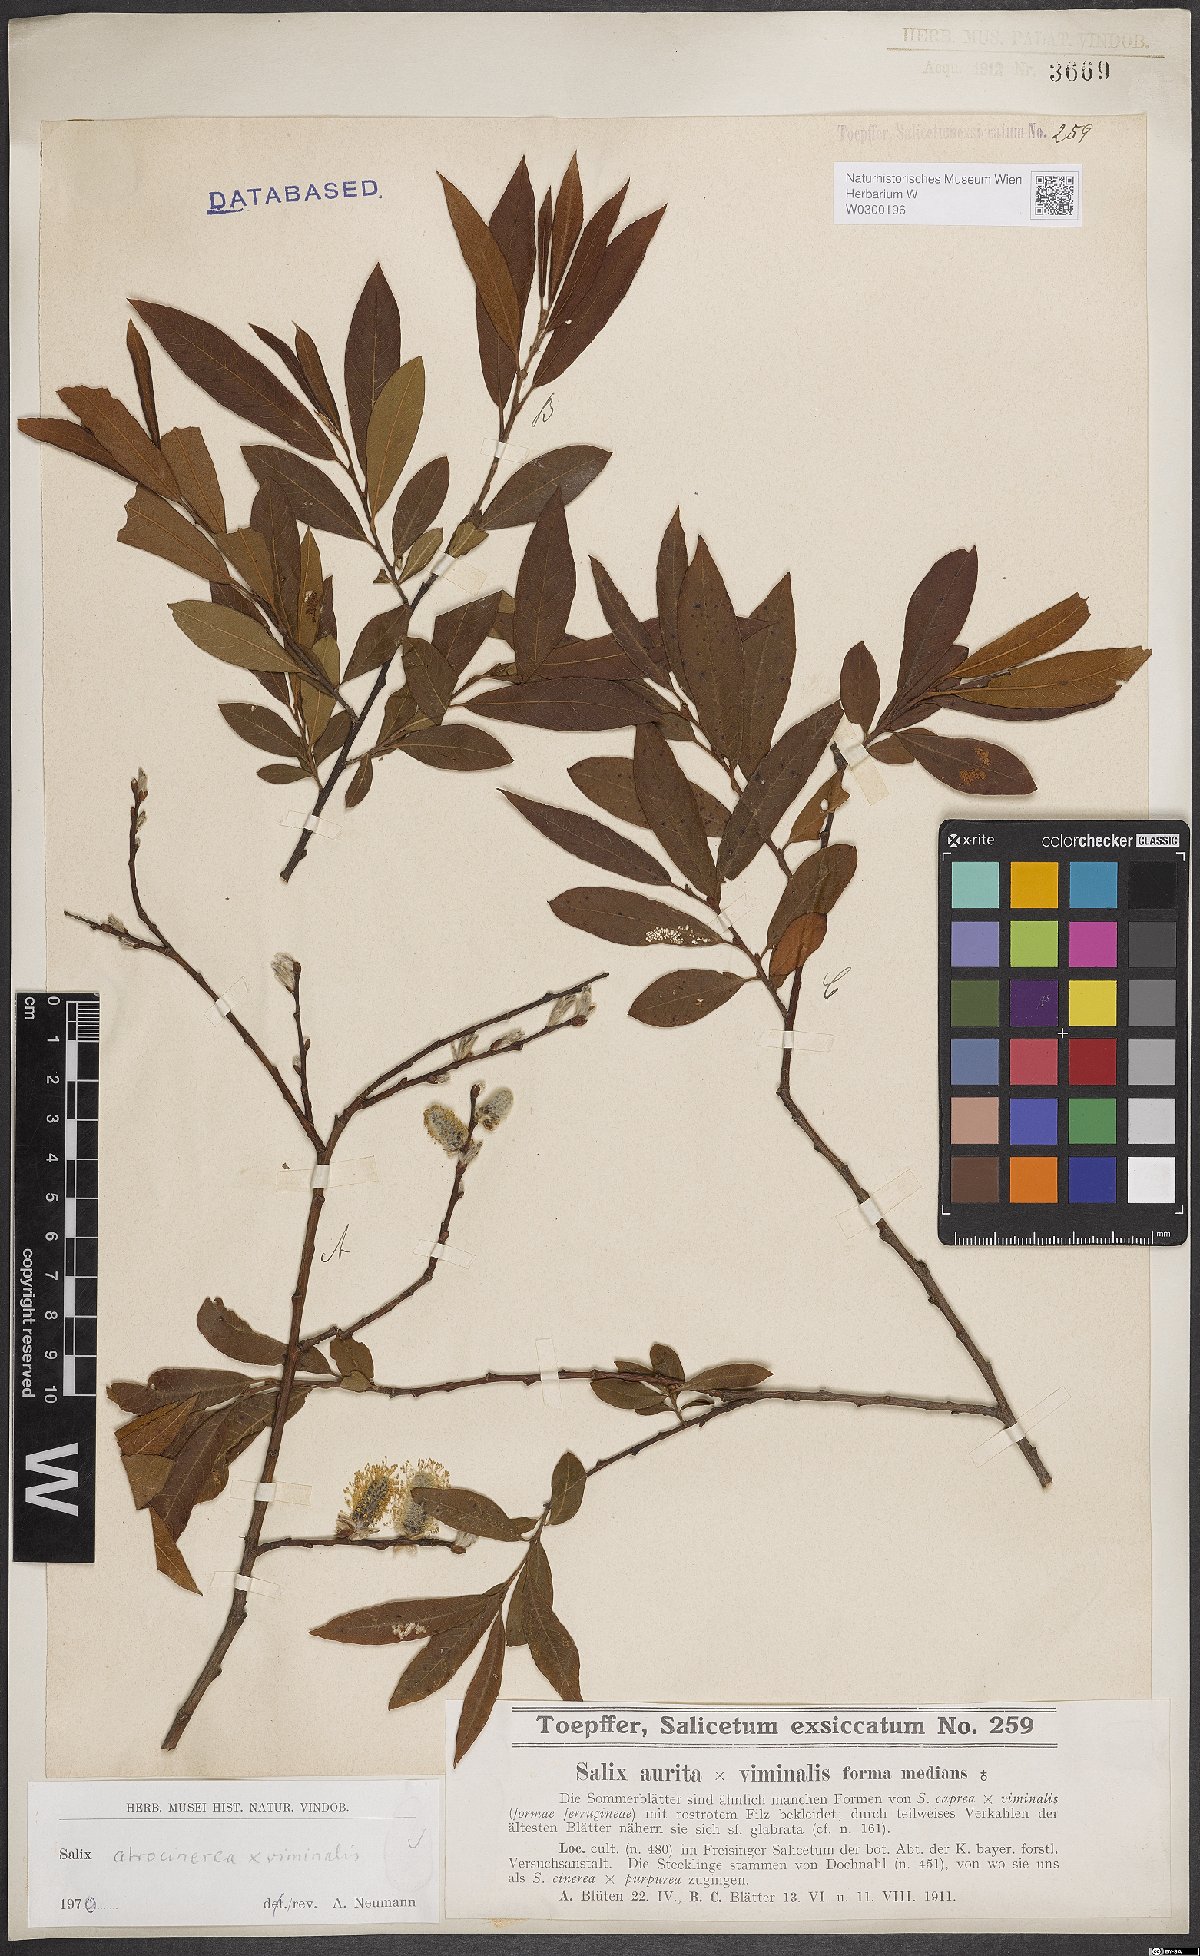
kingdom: Plantae
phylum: Tracheophyta
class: Magnoliopsida
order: Malpighiales
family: Salicaceae
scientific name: Salicaceae
